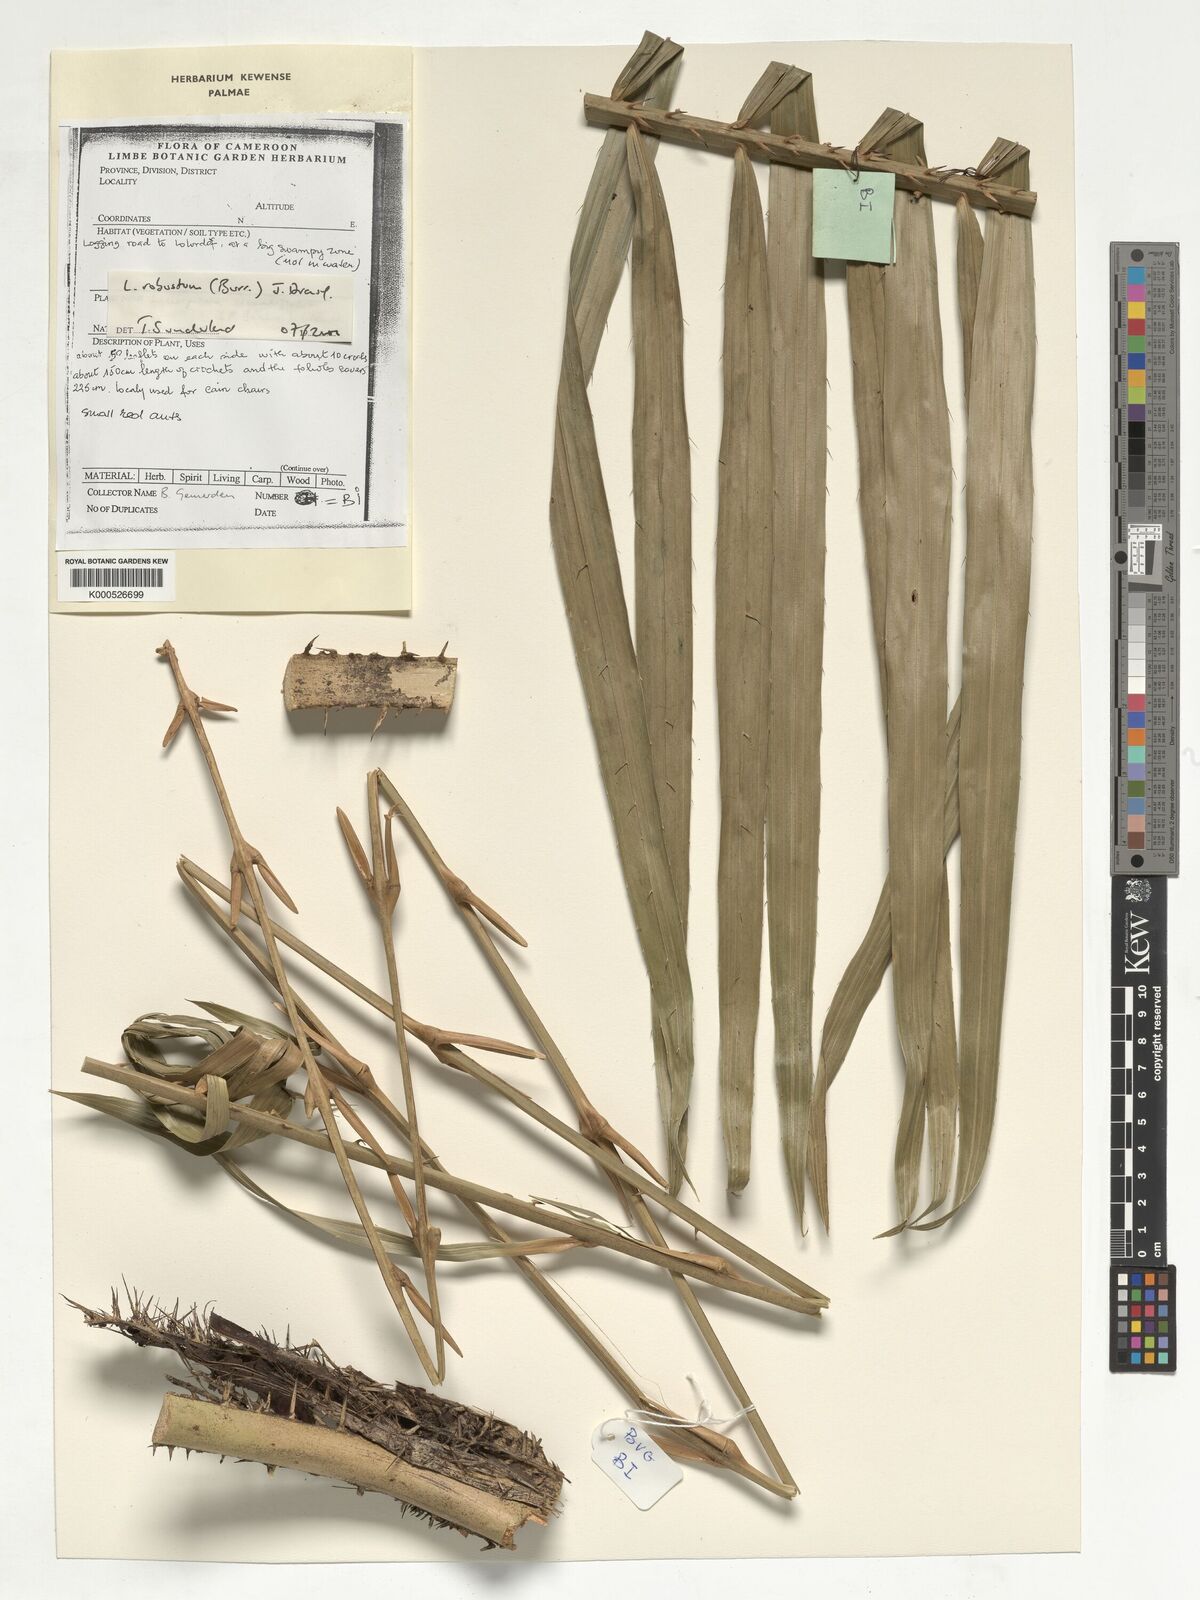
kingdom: Plantae
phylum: Tracheophyta
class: Liliopsida
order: Arecales
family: Arecaceae
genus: Laccosperma
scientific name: Laccosperma robustum
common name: Rattan
